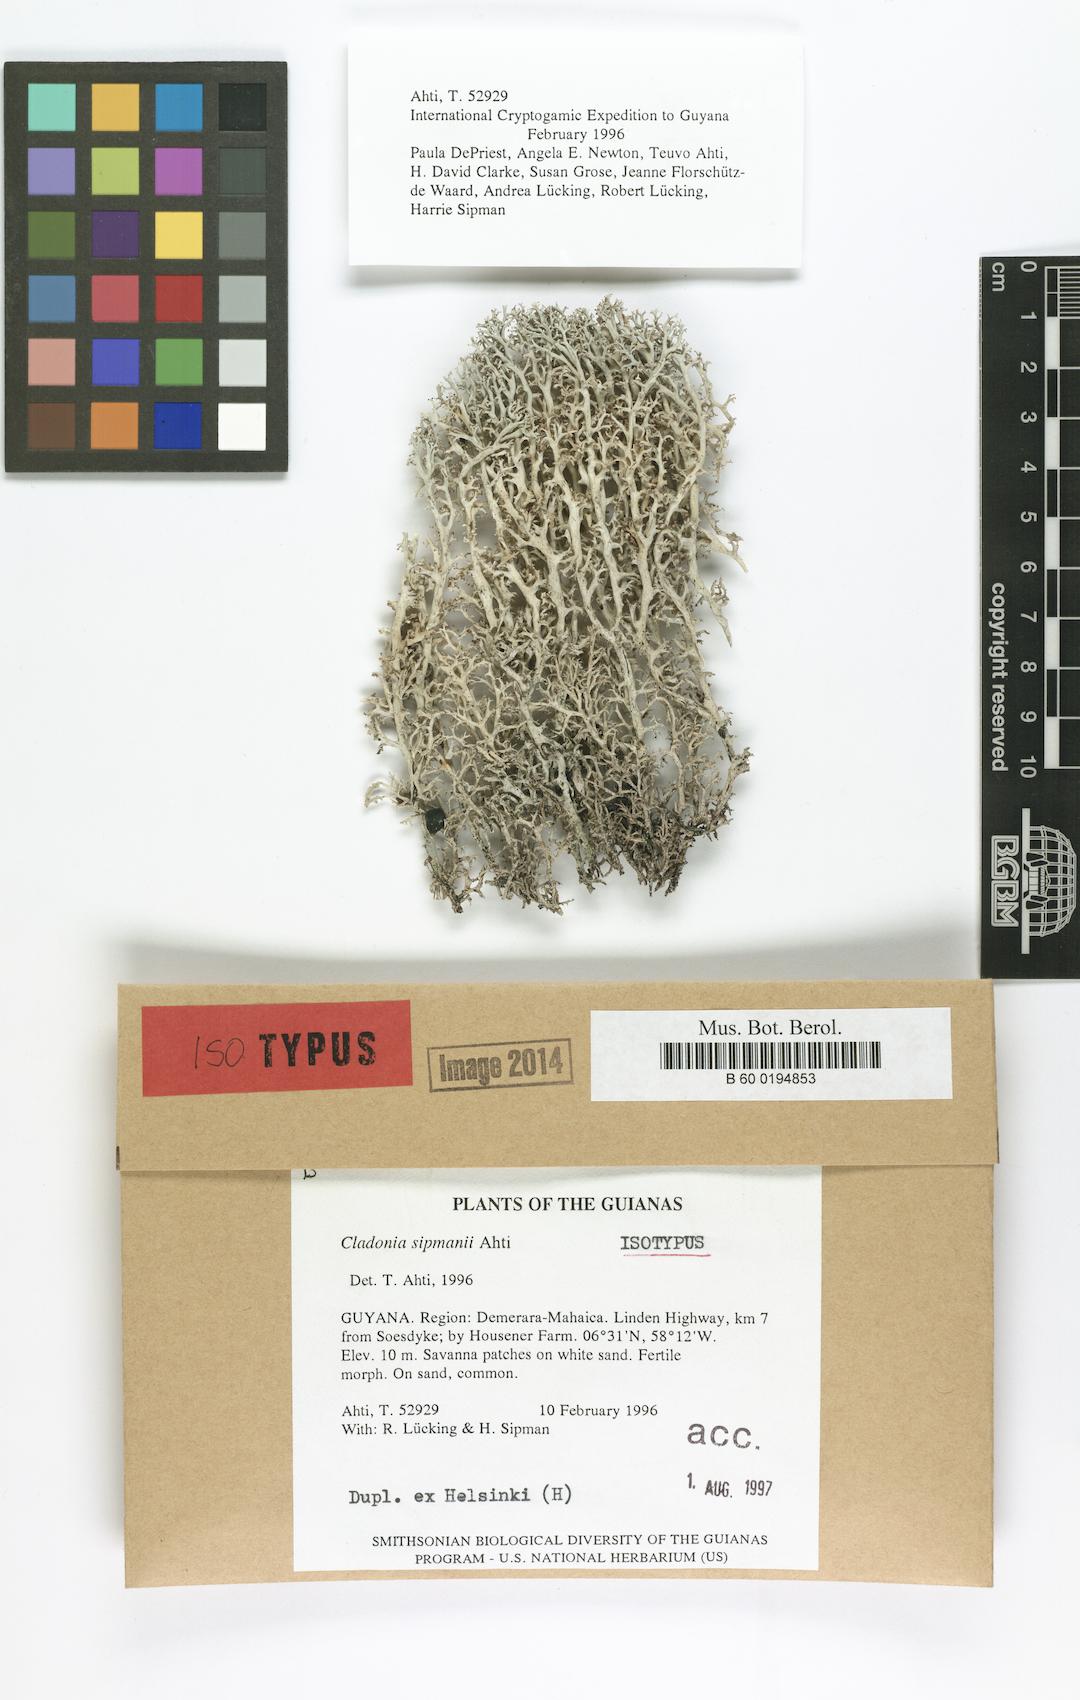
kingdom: Fungi
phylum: Ascomycota
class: Lecanoromycetes
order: Lecanorales
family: Cladoniaceae
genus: Cladonia
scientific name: Cladonia sipmanii
